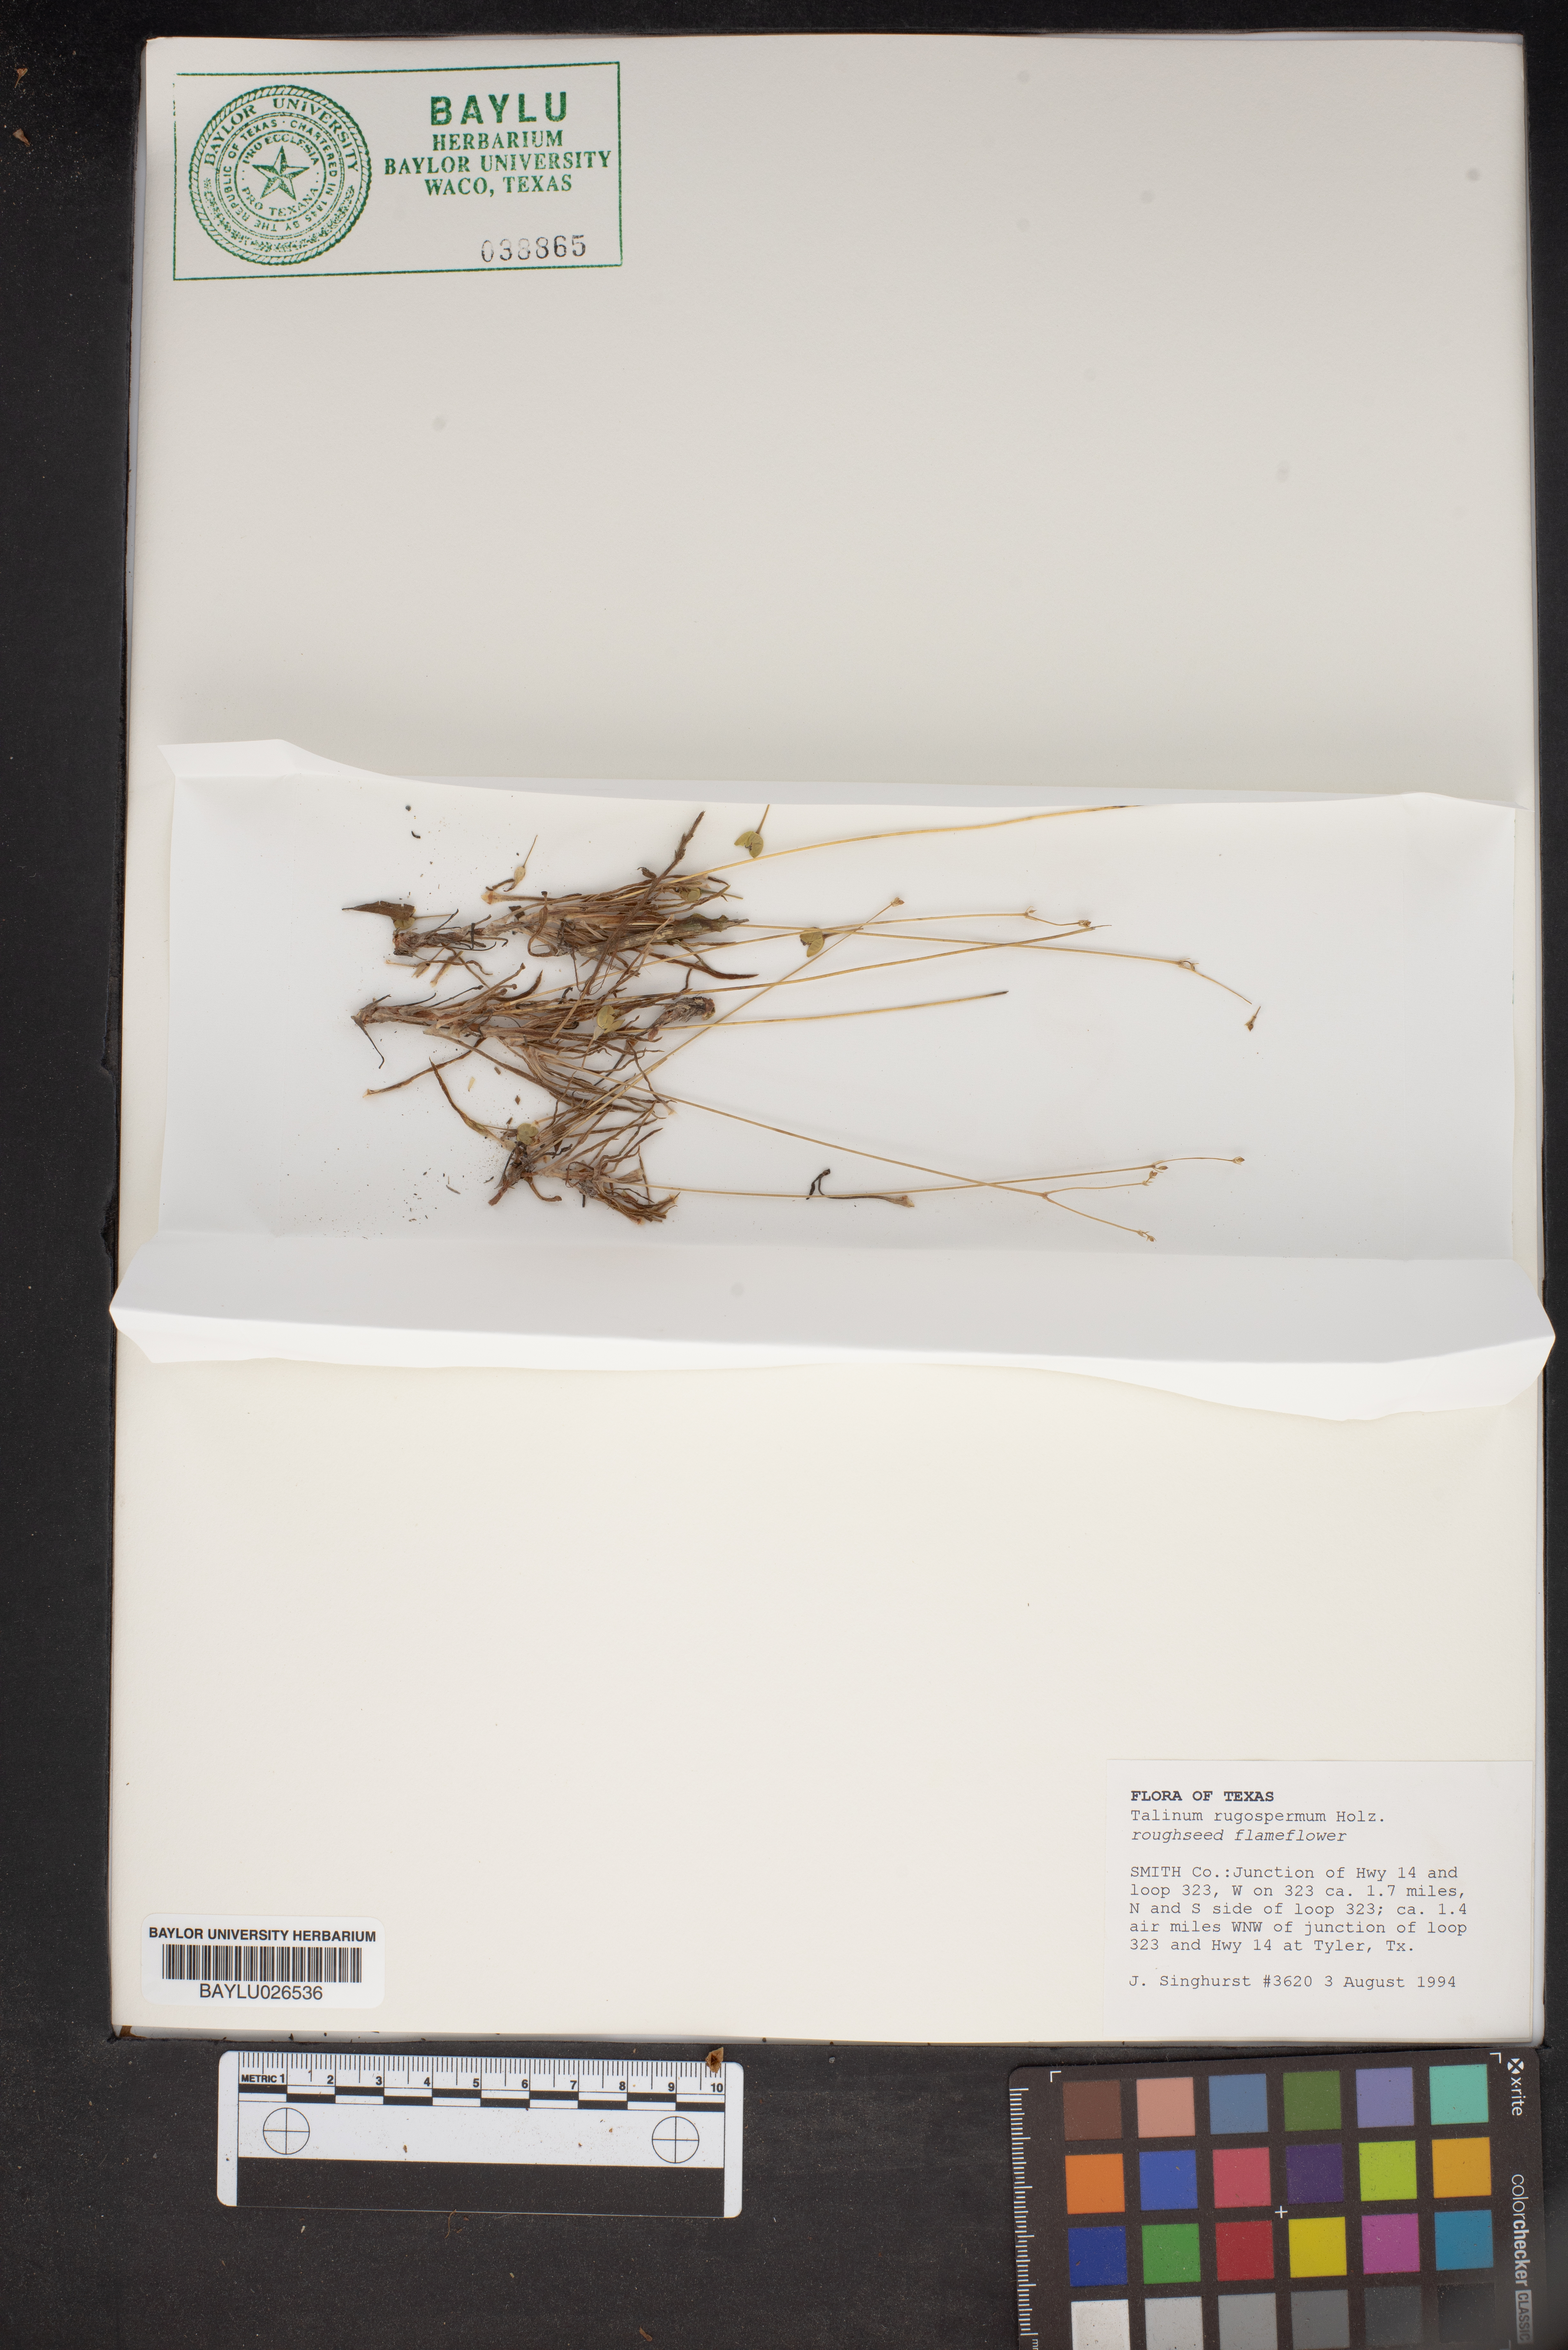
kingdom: Plantae
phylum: Tracheophyta
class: Magnoliopsida
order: Caryophyllales
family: Montiaceae
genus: Phemeranthus
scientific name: Phemeranthus rugospermus
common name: Prairie fameflower
